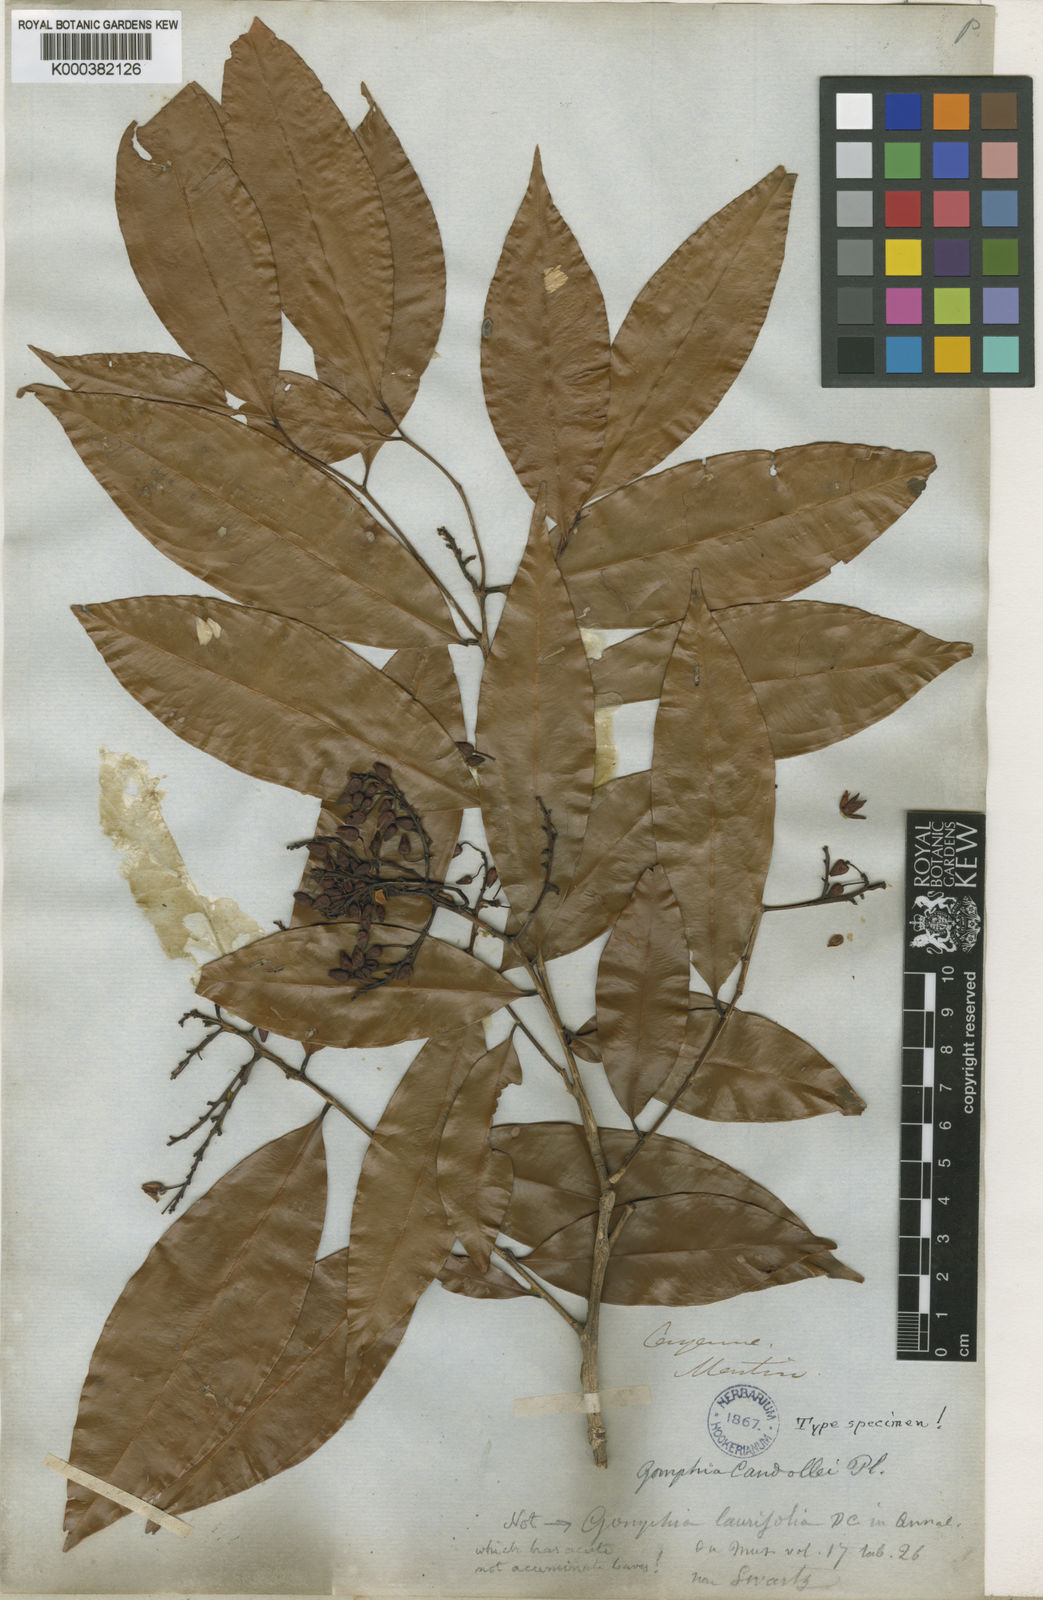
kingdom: Plantae
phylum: Tracheophyta
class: Magnoliopsida
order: Malpighiales
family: Ochnaceae
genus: Ouratea
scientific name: Ouratea
